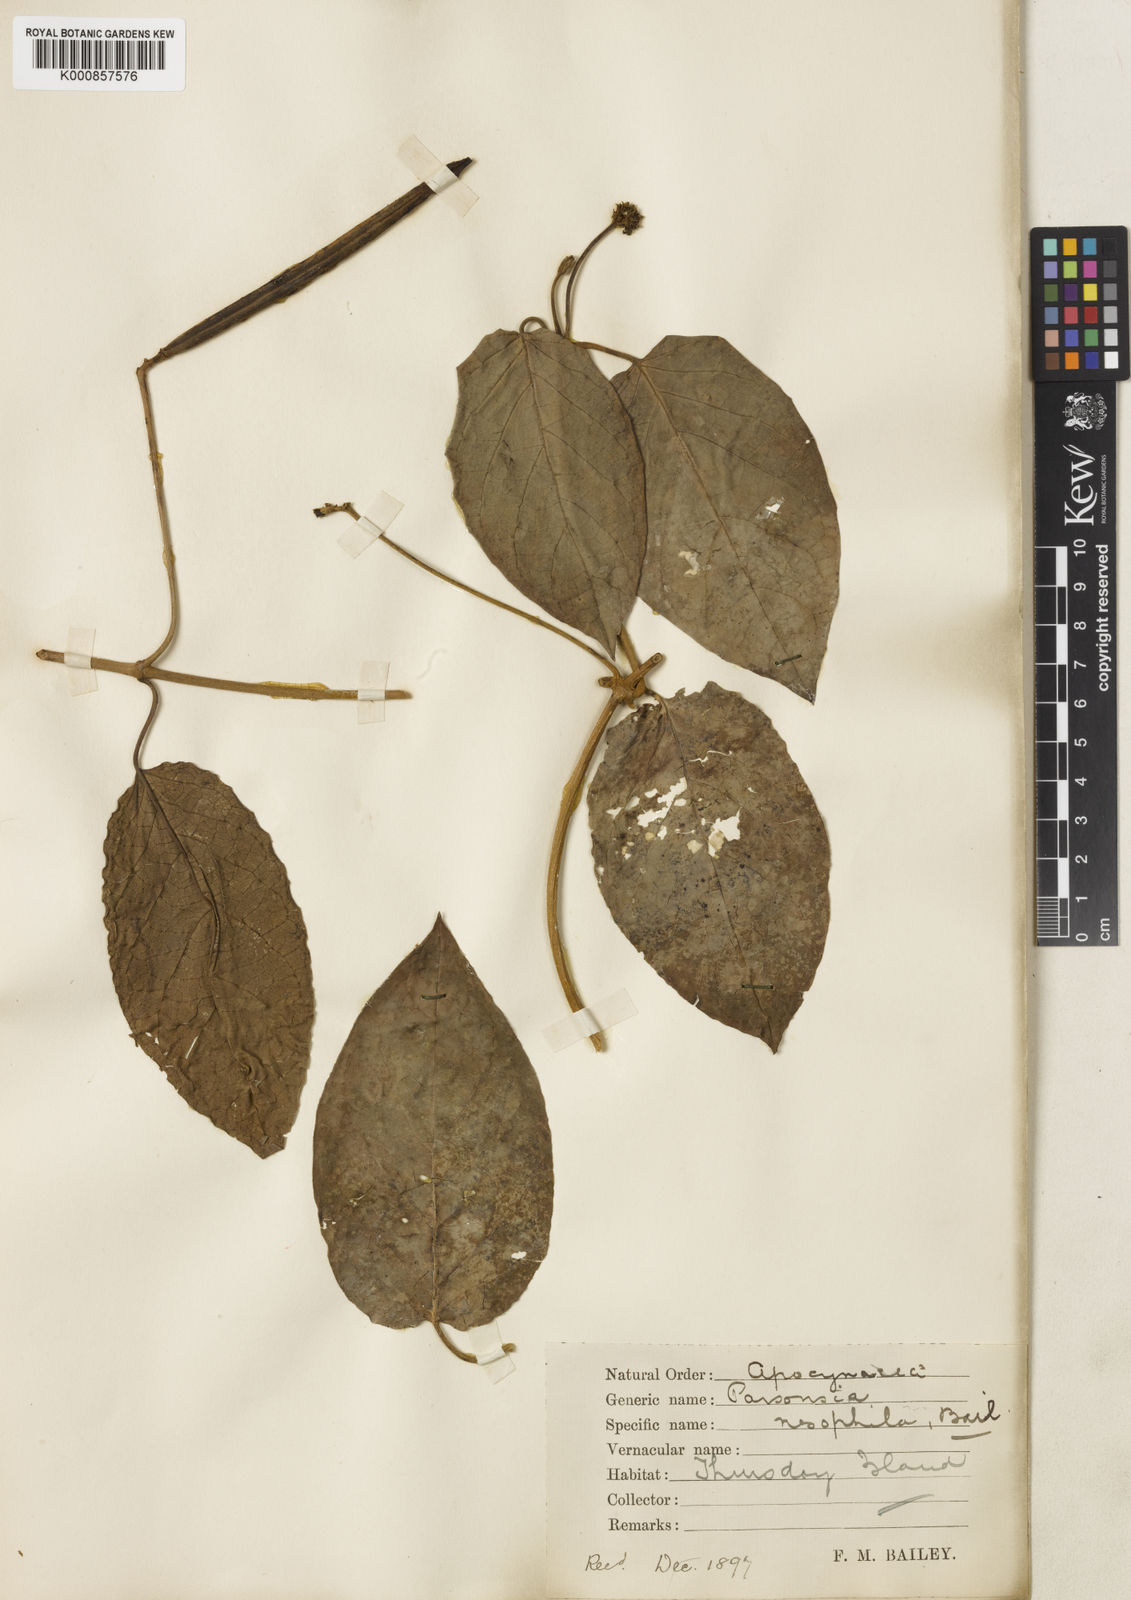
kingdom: Plantae
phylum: Tracheophyta
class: Magnoliopsida
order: Gentianales
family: Apocynaceae
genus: Parsonsia
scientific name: Parsonsia velutina
